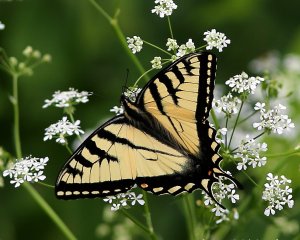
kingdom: Animalia
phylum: Arthropoda
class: Insecta
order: Lepidoptera
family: Papilionidae
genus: Pterourus
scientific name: Pterourus
